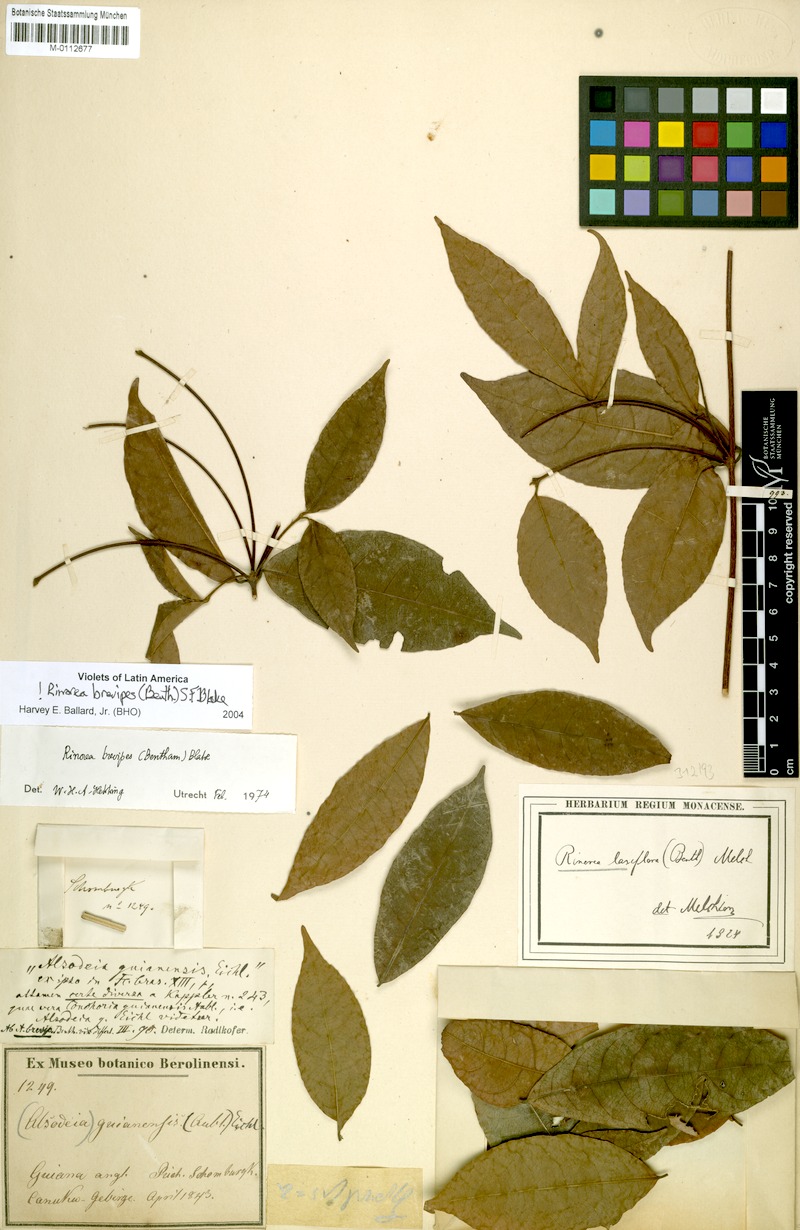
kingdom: Plantae
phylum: Tracheophyta
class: Magnoliopsida
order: Malpighiales
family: Violaceae
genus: Rinorea
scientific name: Rinorea brevipes
